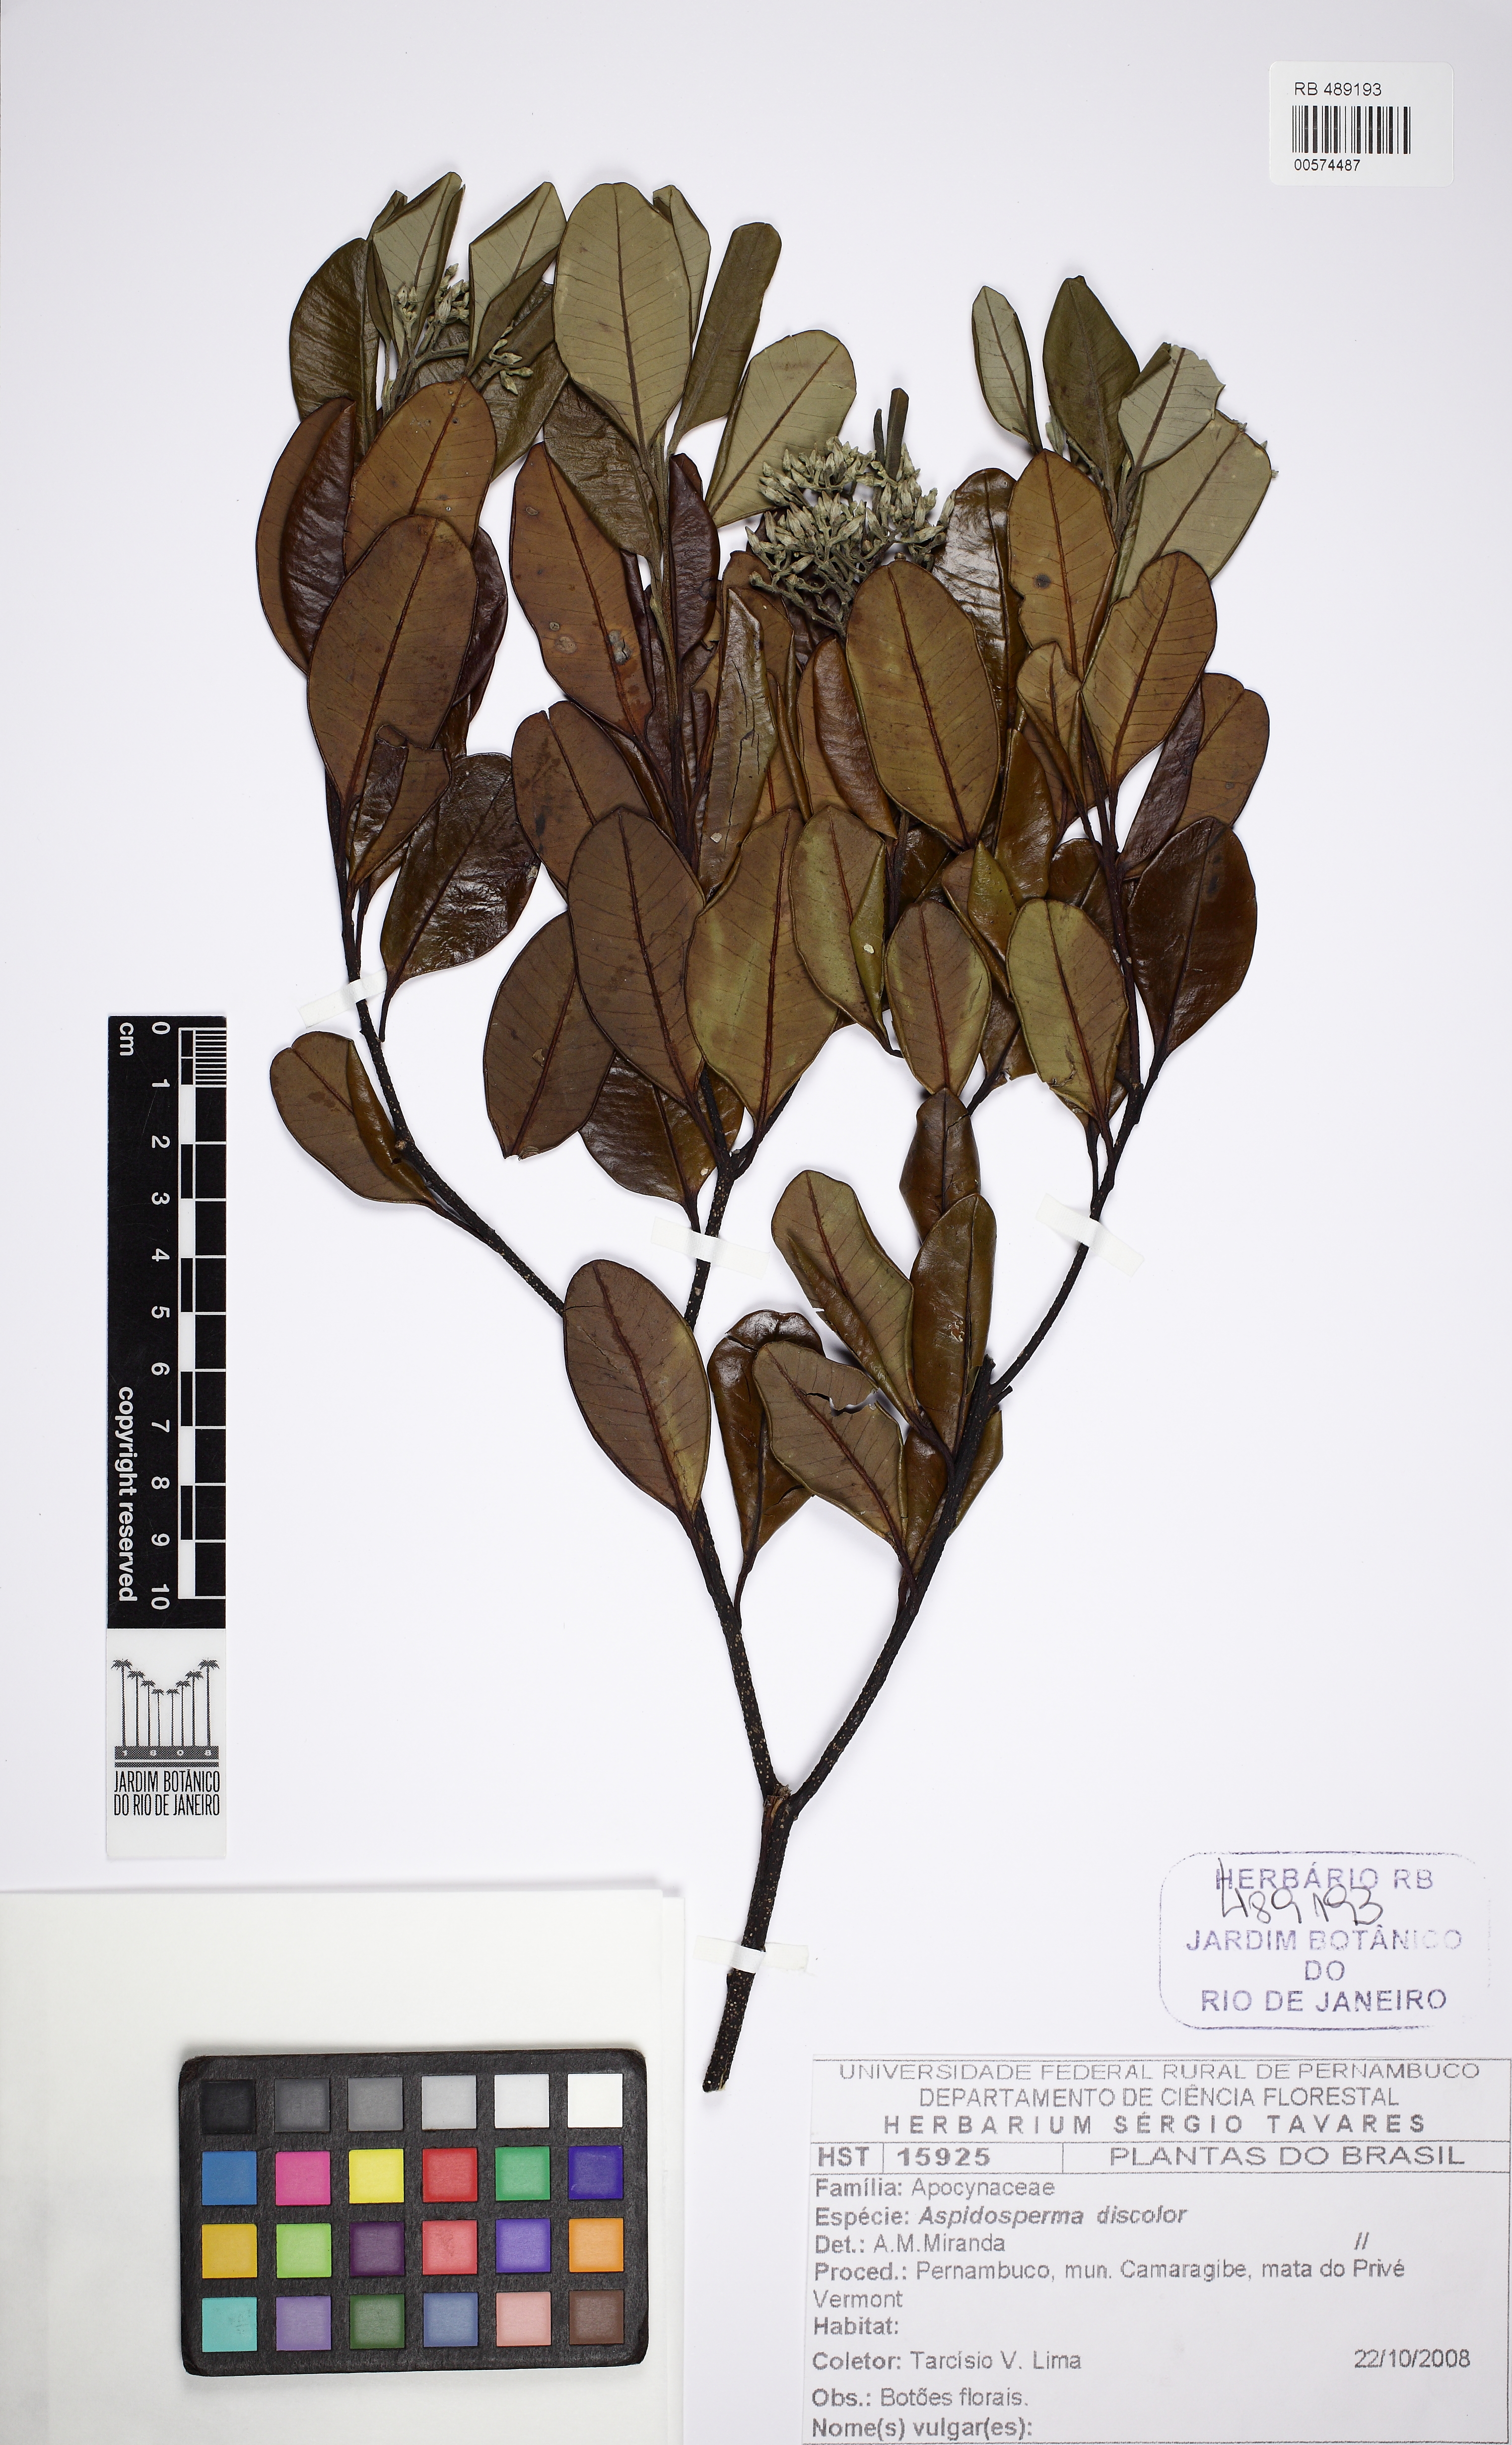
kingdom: Plantae
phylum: Tracheophyta
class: Magnoliopsida
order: Gentianales
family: Apocynaceae
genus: Aspidosperma
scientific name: Aspidosperma discolor
